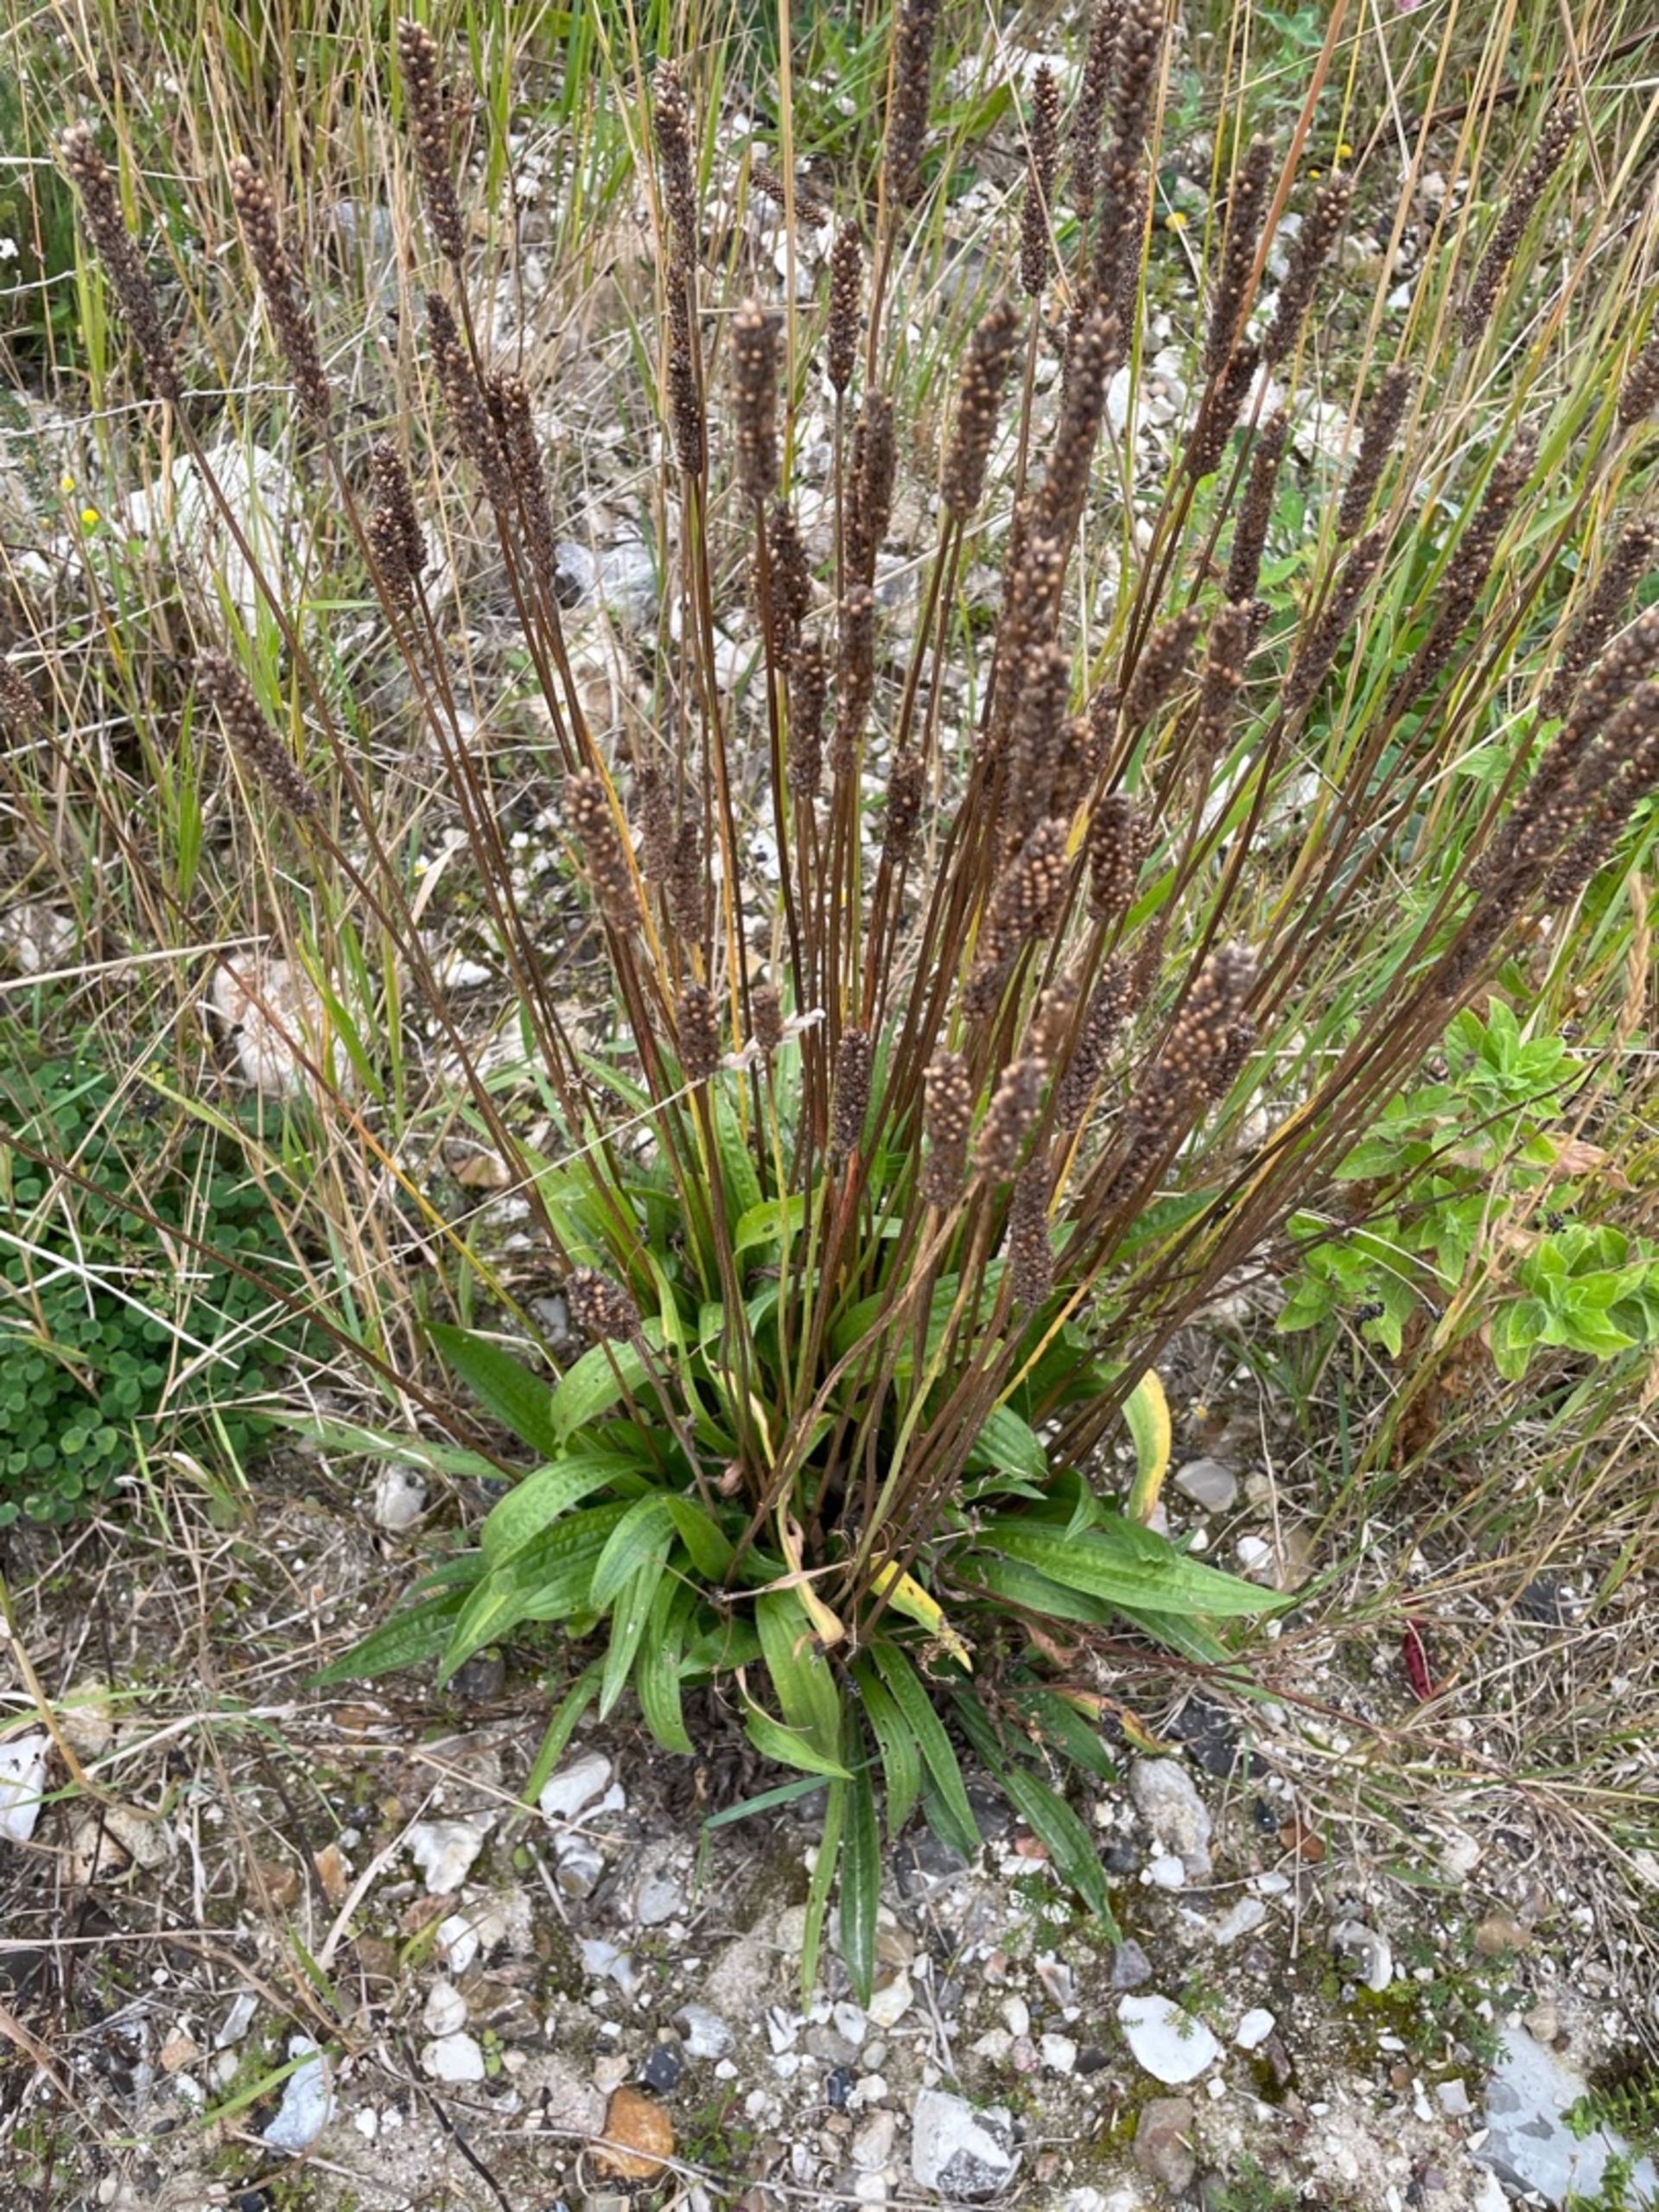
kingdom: Plantae
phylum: Tracheophyta
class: Magnoliopsida
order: Lamiales
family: Plantaginaceae
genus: Plantago
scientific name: Plantago lanceolata
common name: Lancet-vejbred
